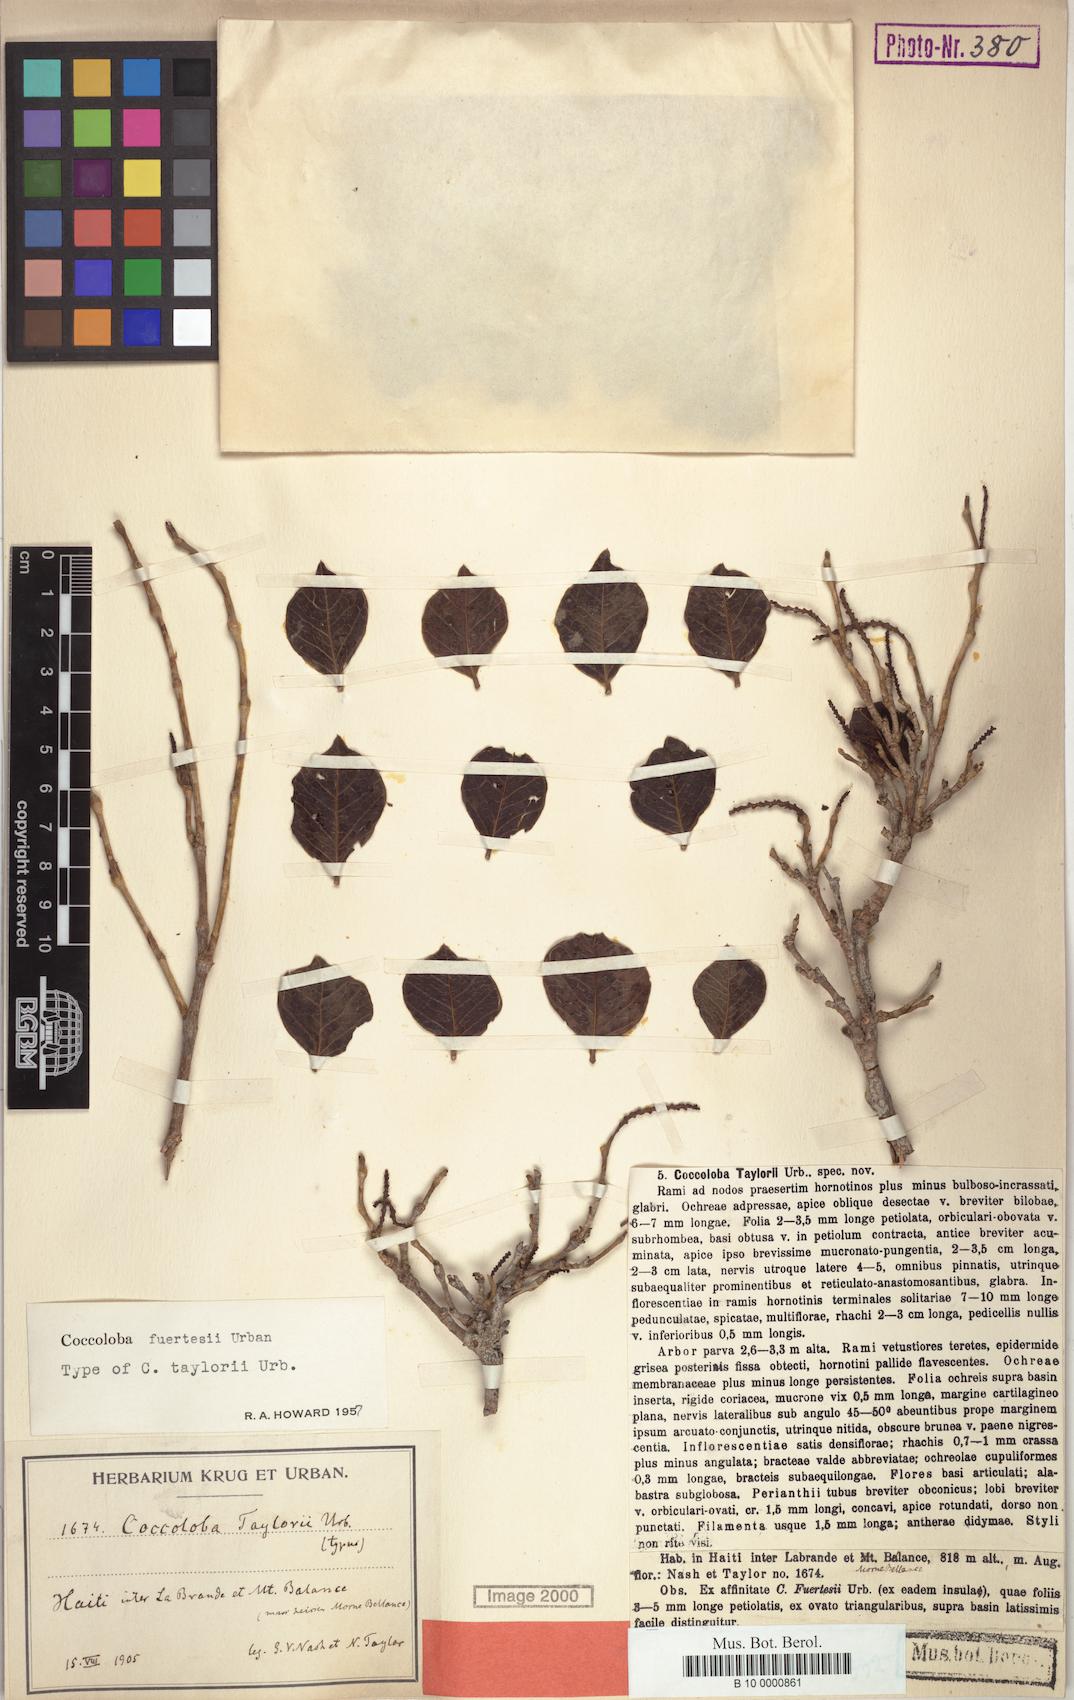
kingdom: Plantae
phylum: Tracheophyta
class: Magnoliopsida
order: Caryophyllales
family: Polygonaceae
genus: Coccoloba
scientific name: Coccoloba fuertesii
